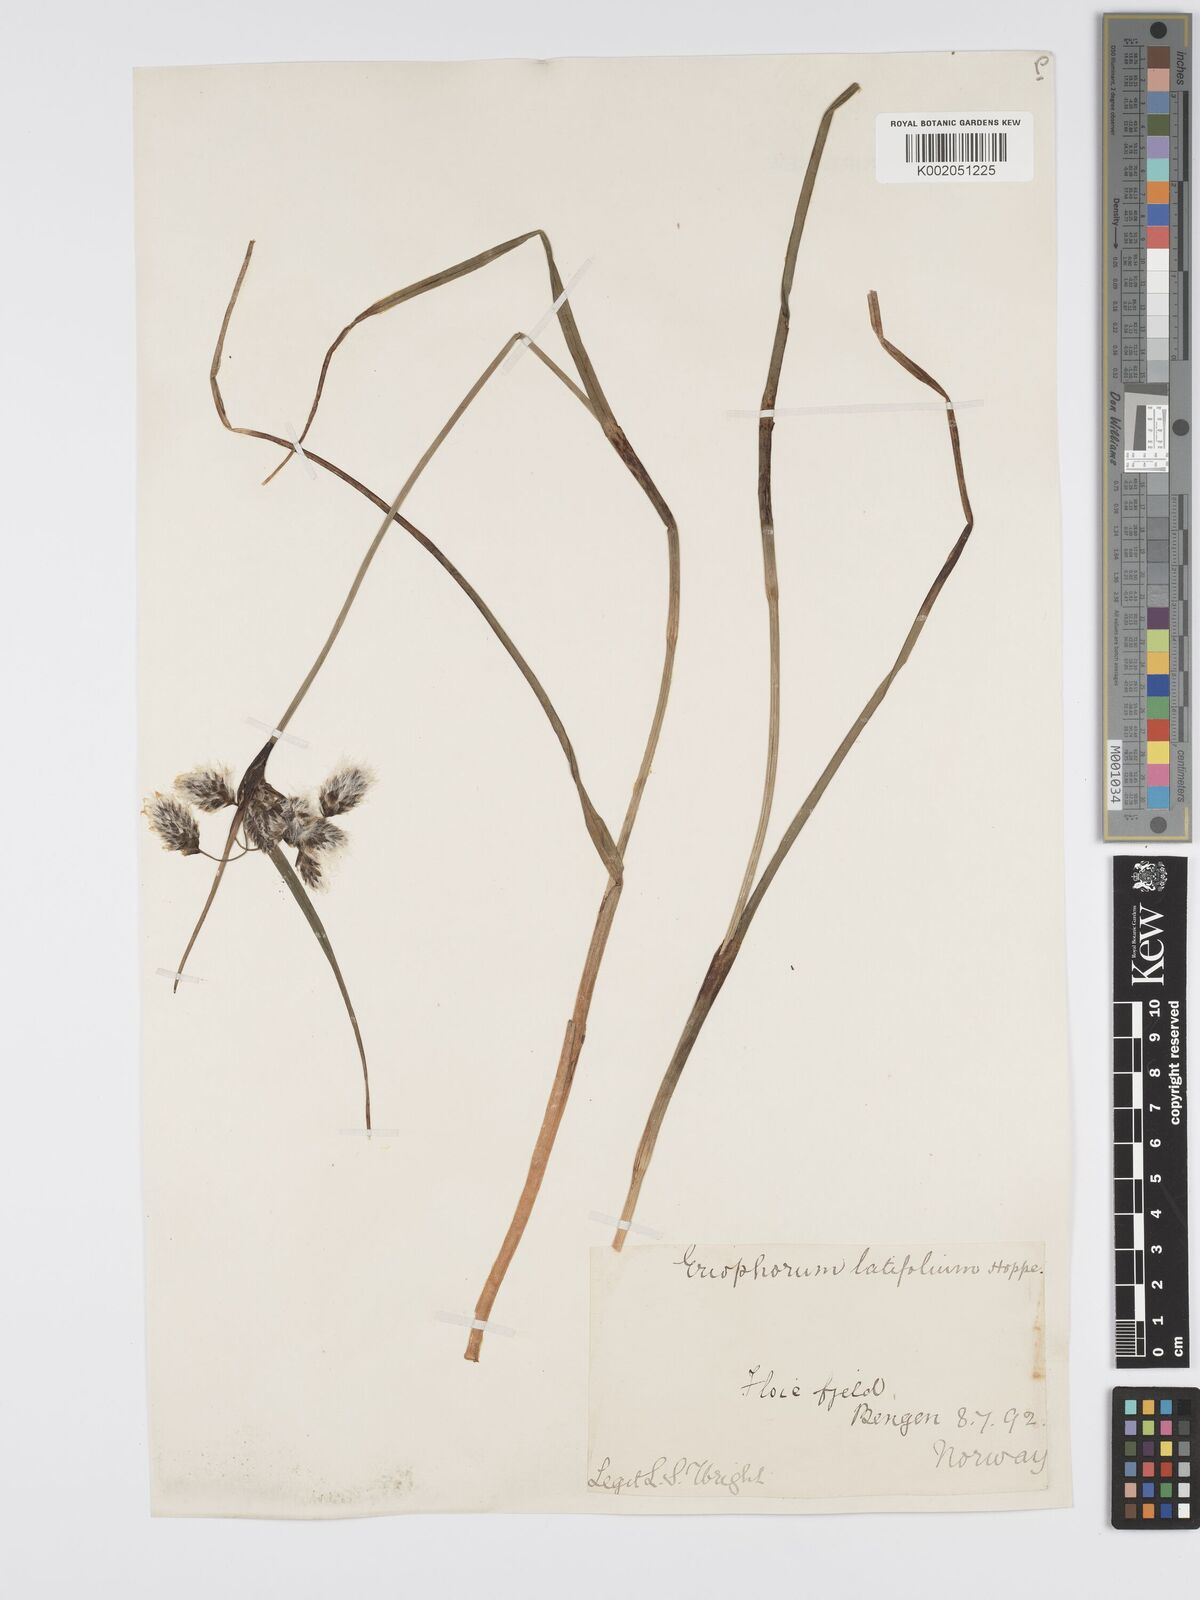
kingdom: Plantae
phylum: Tracheophyta
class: Liliopsida
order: Poales
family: Cyperaceae
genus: Eriophorum
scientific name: Eriophorum latifolium
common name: Broad-leaved cottongrass
